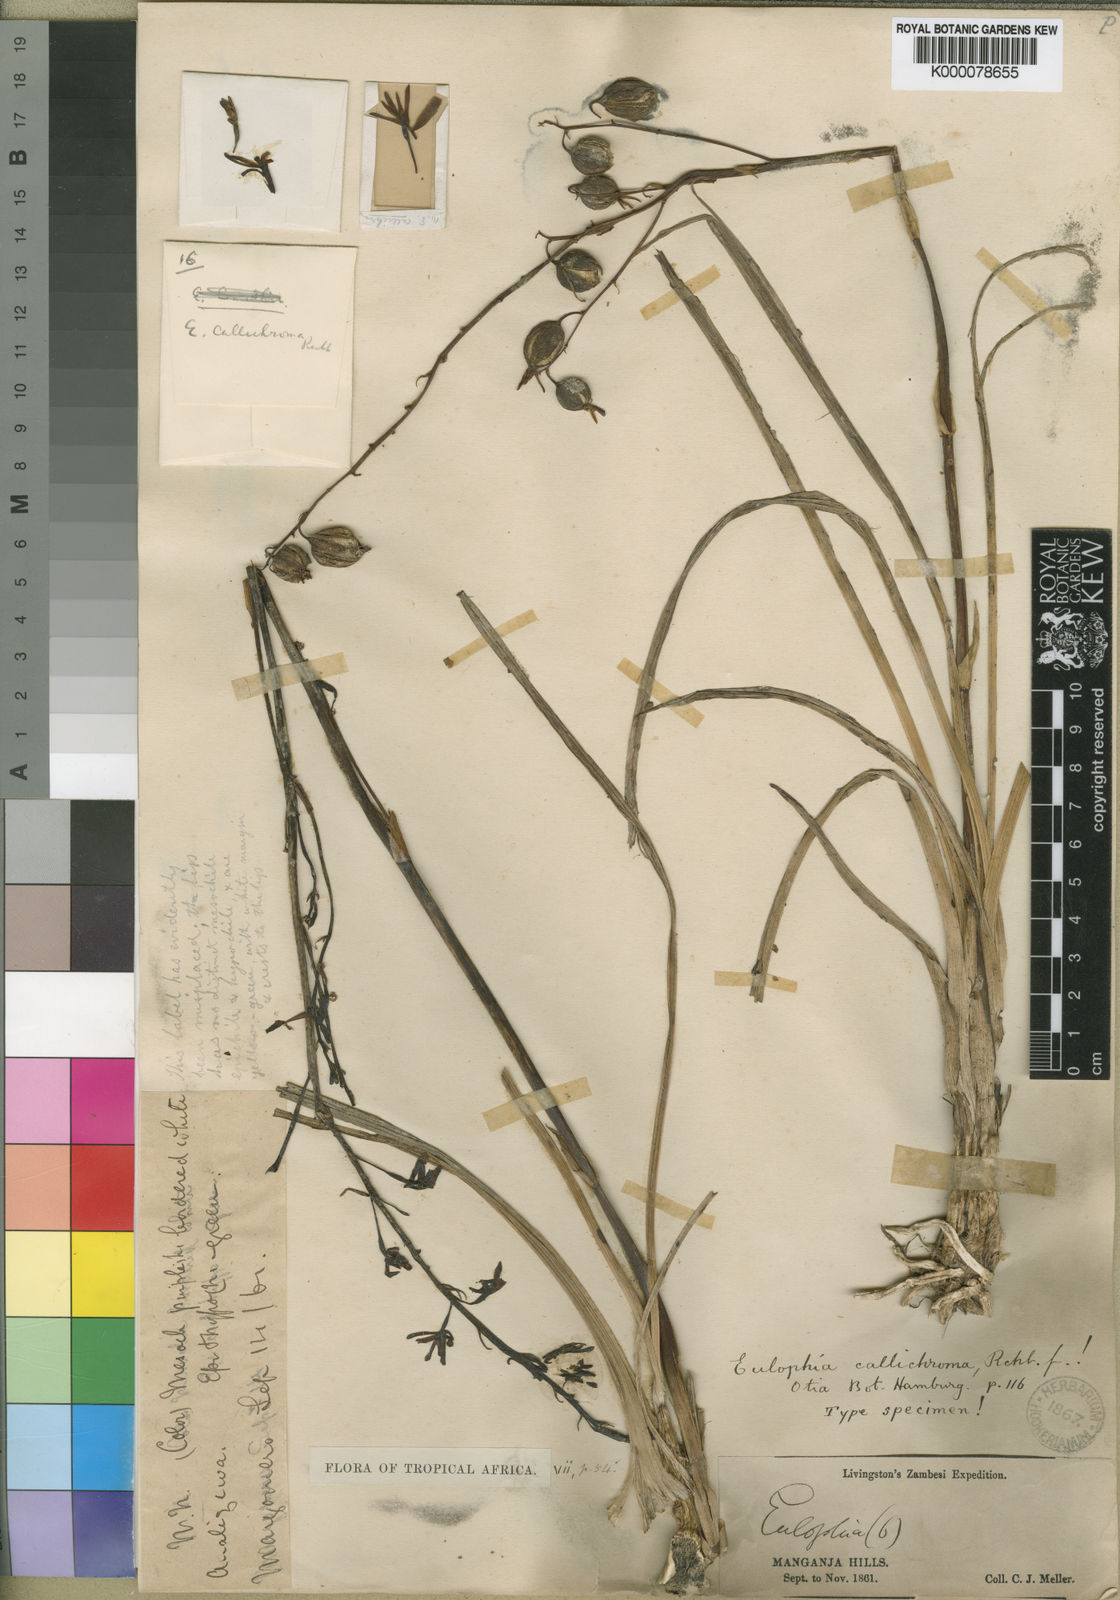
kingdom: Plantae
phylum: Tracheophyta
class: Liliopsida
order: Asparagales
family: Orchidaceae
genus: Eulophia
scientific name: Eulophia callichroma
